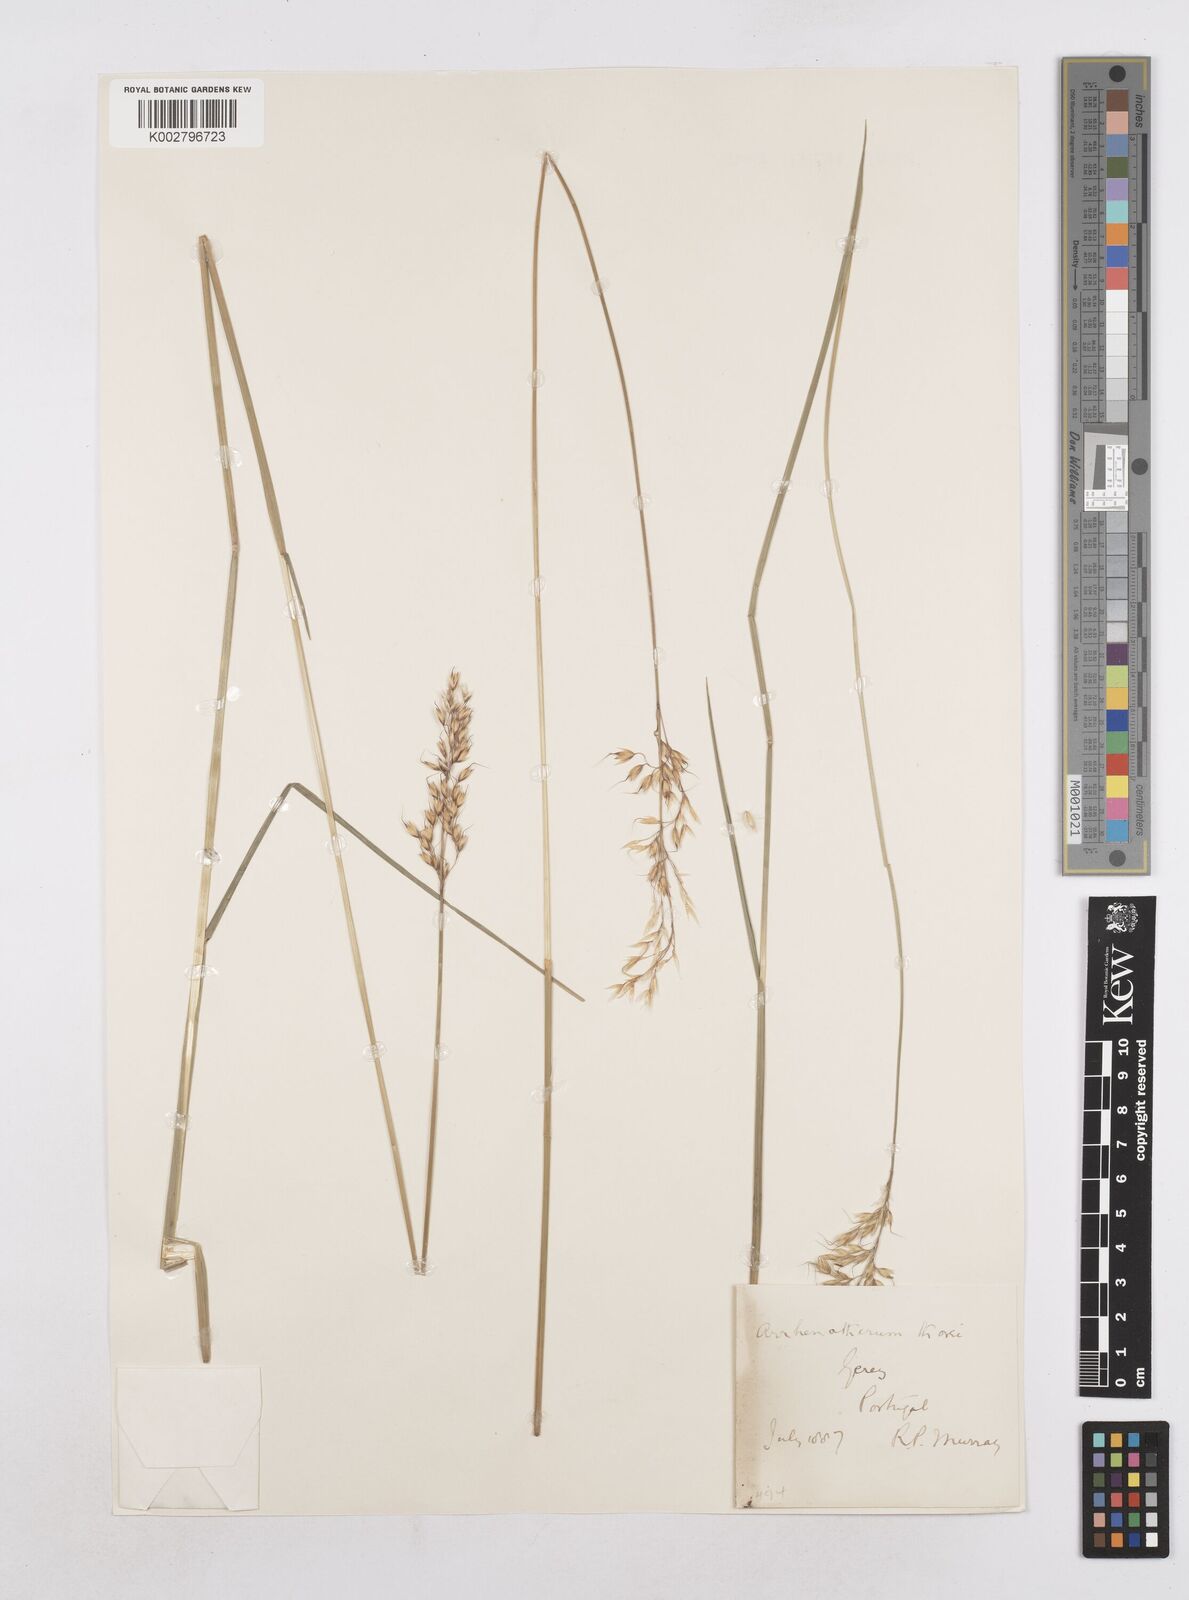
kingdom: Plantae
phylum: Tracheophyta
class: Liliopsida
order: Poales
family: Poaceae
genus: Arrhenatherum
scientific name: Arrhenatherum longifolium
